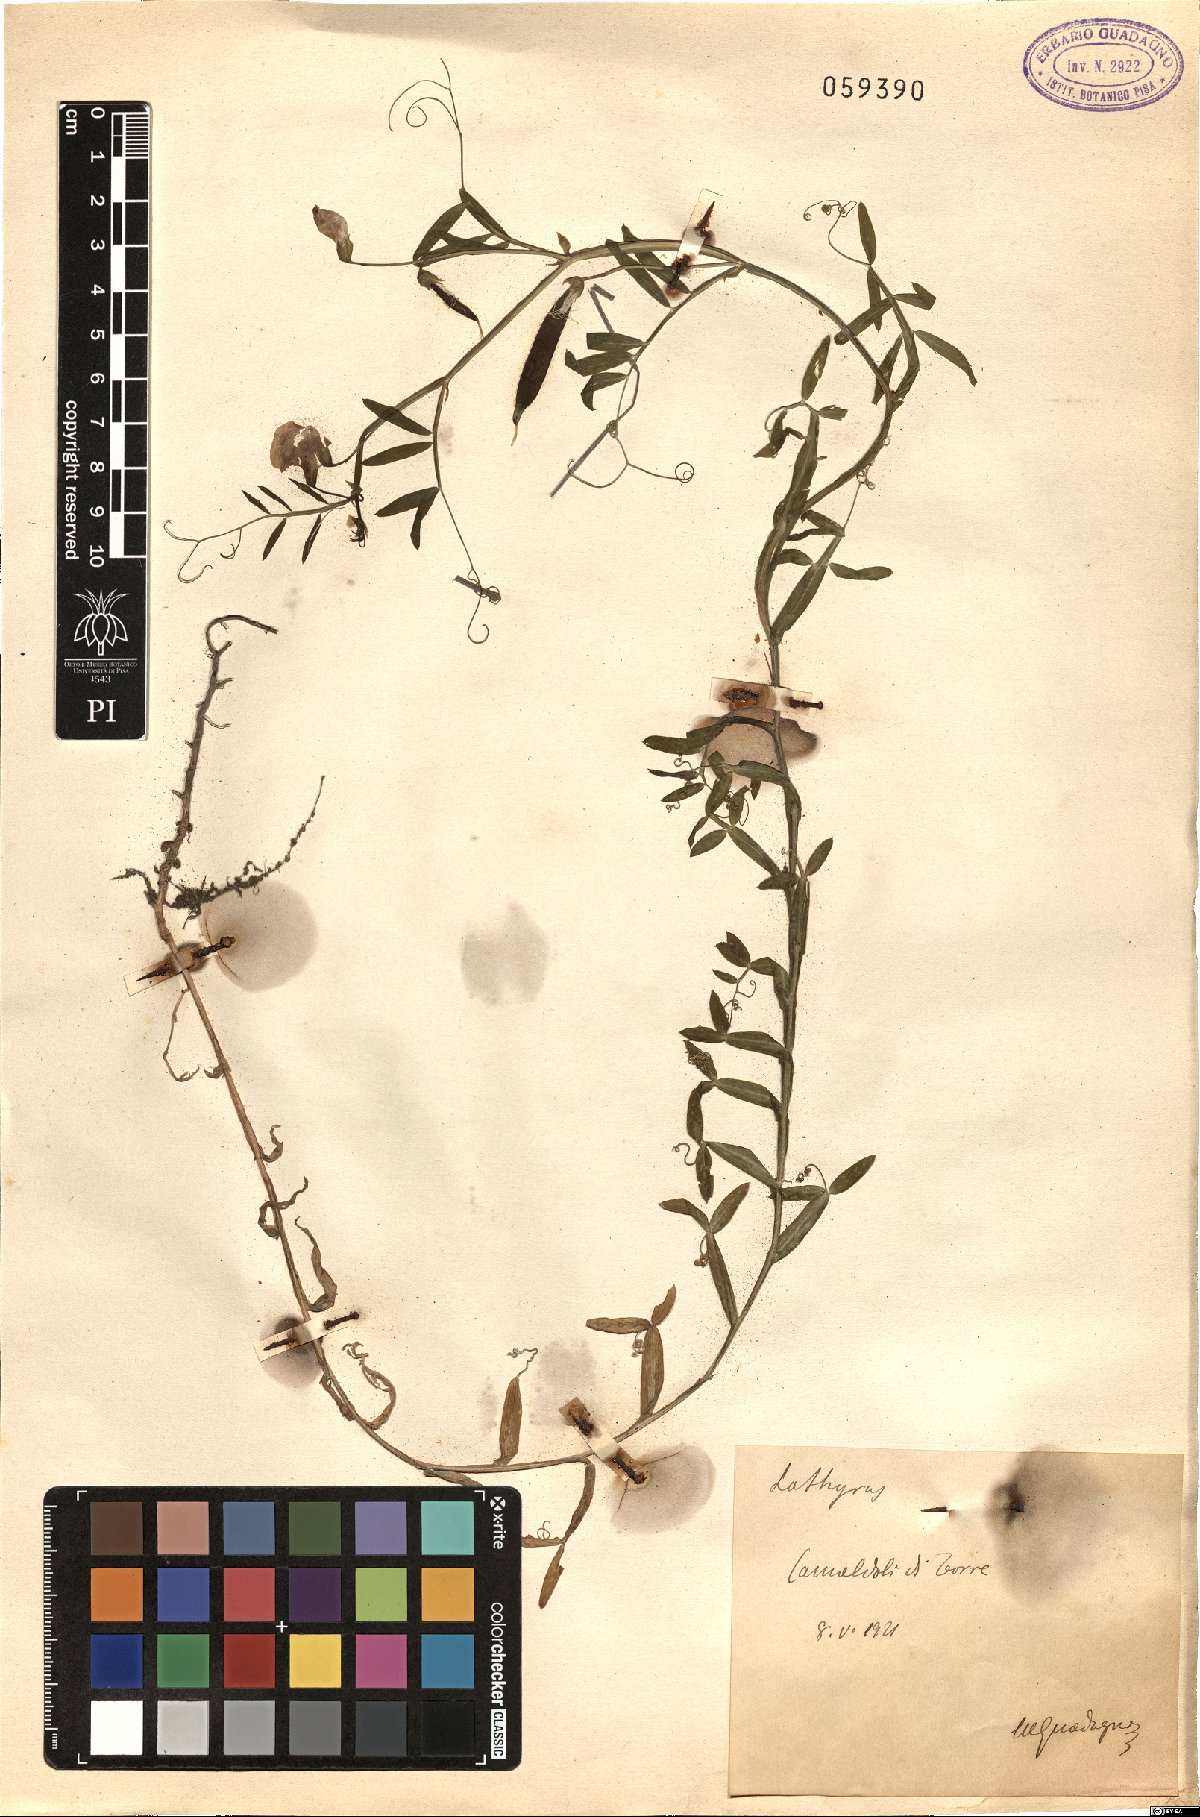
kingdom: Plantae
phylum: Tracheophyta
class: Magnoliopsida
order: Fabales
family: Fabaceae
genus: Lathyrus
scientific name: Lathyrus
